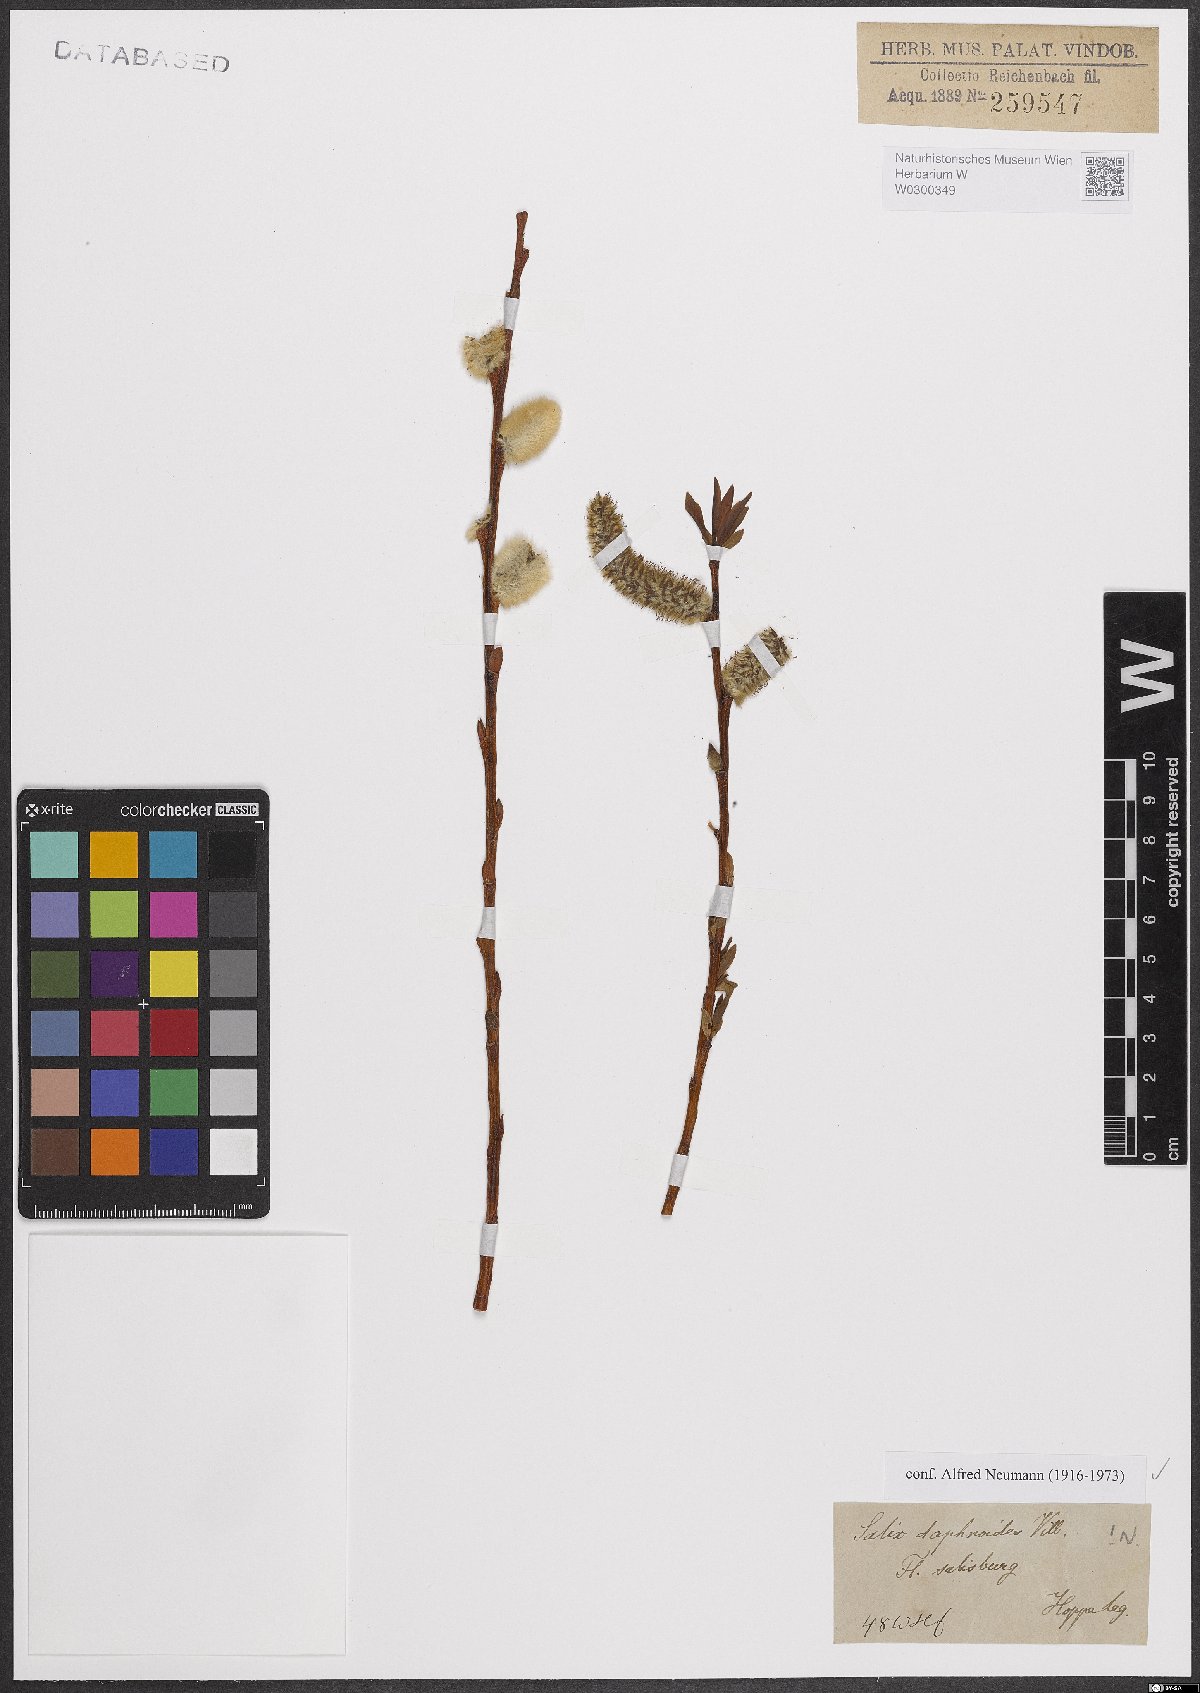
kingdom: Plantae
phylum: Tracheophyta
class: Magnoliopsida
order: Malpighiales
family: Salicaceae
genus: Salix
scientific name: Salix daphnoides
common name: European violet-willow
